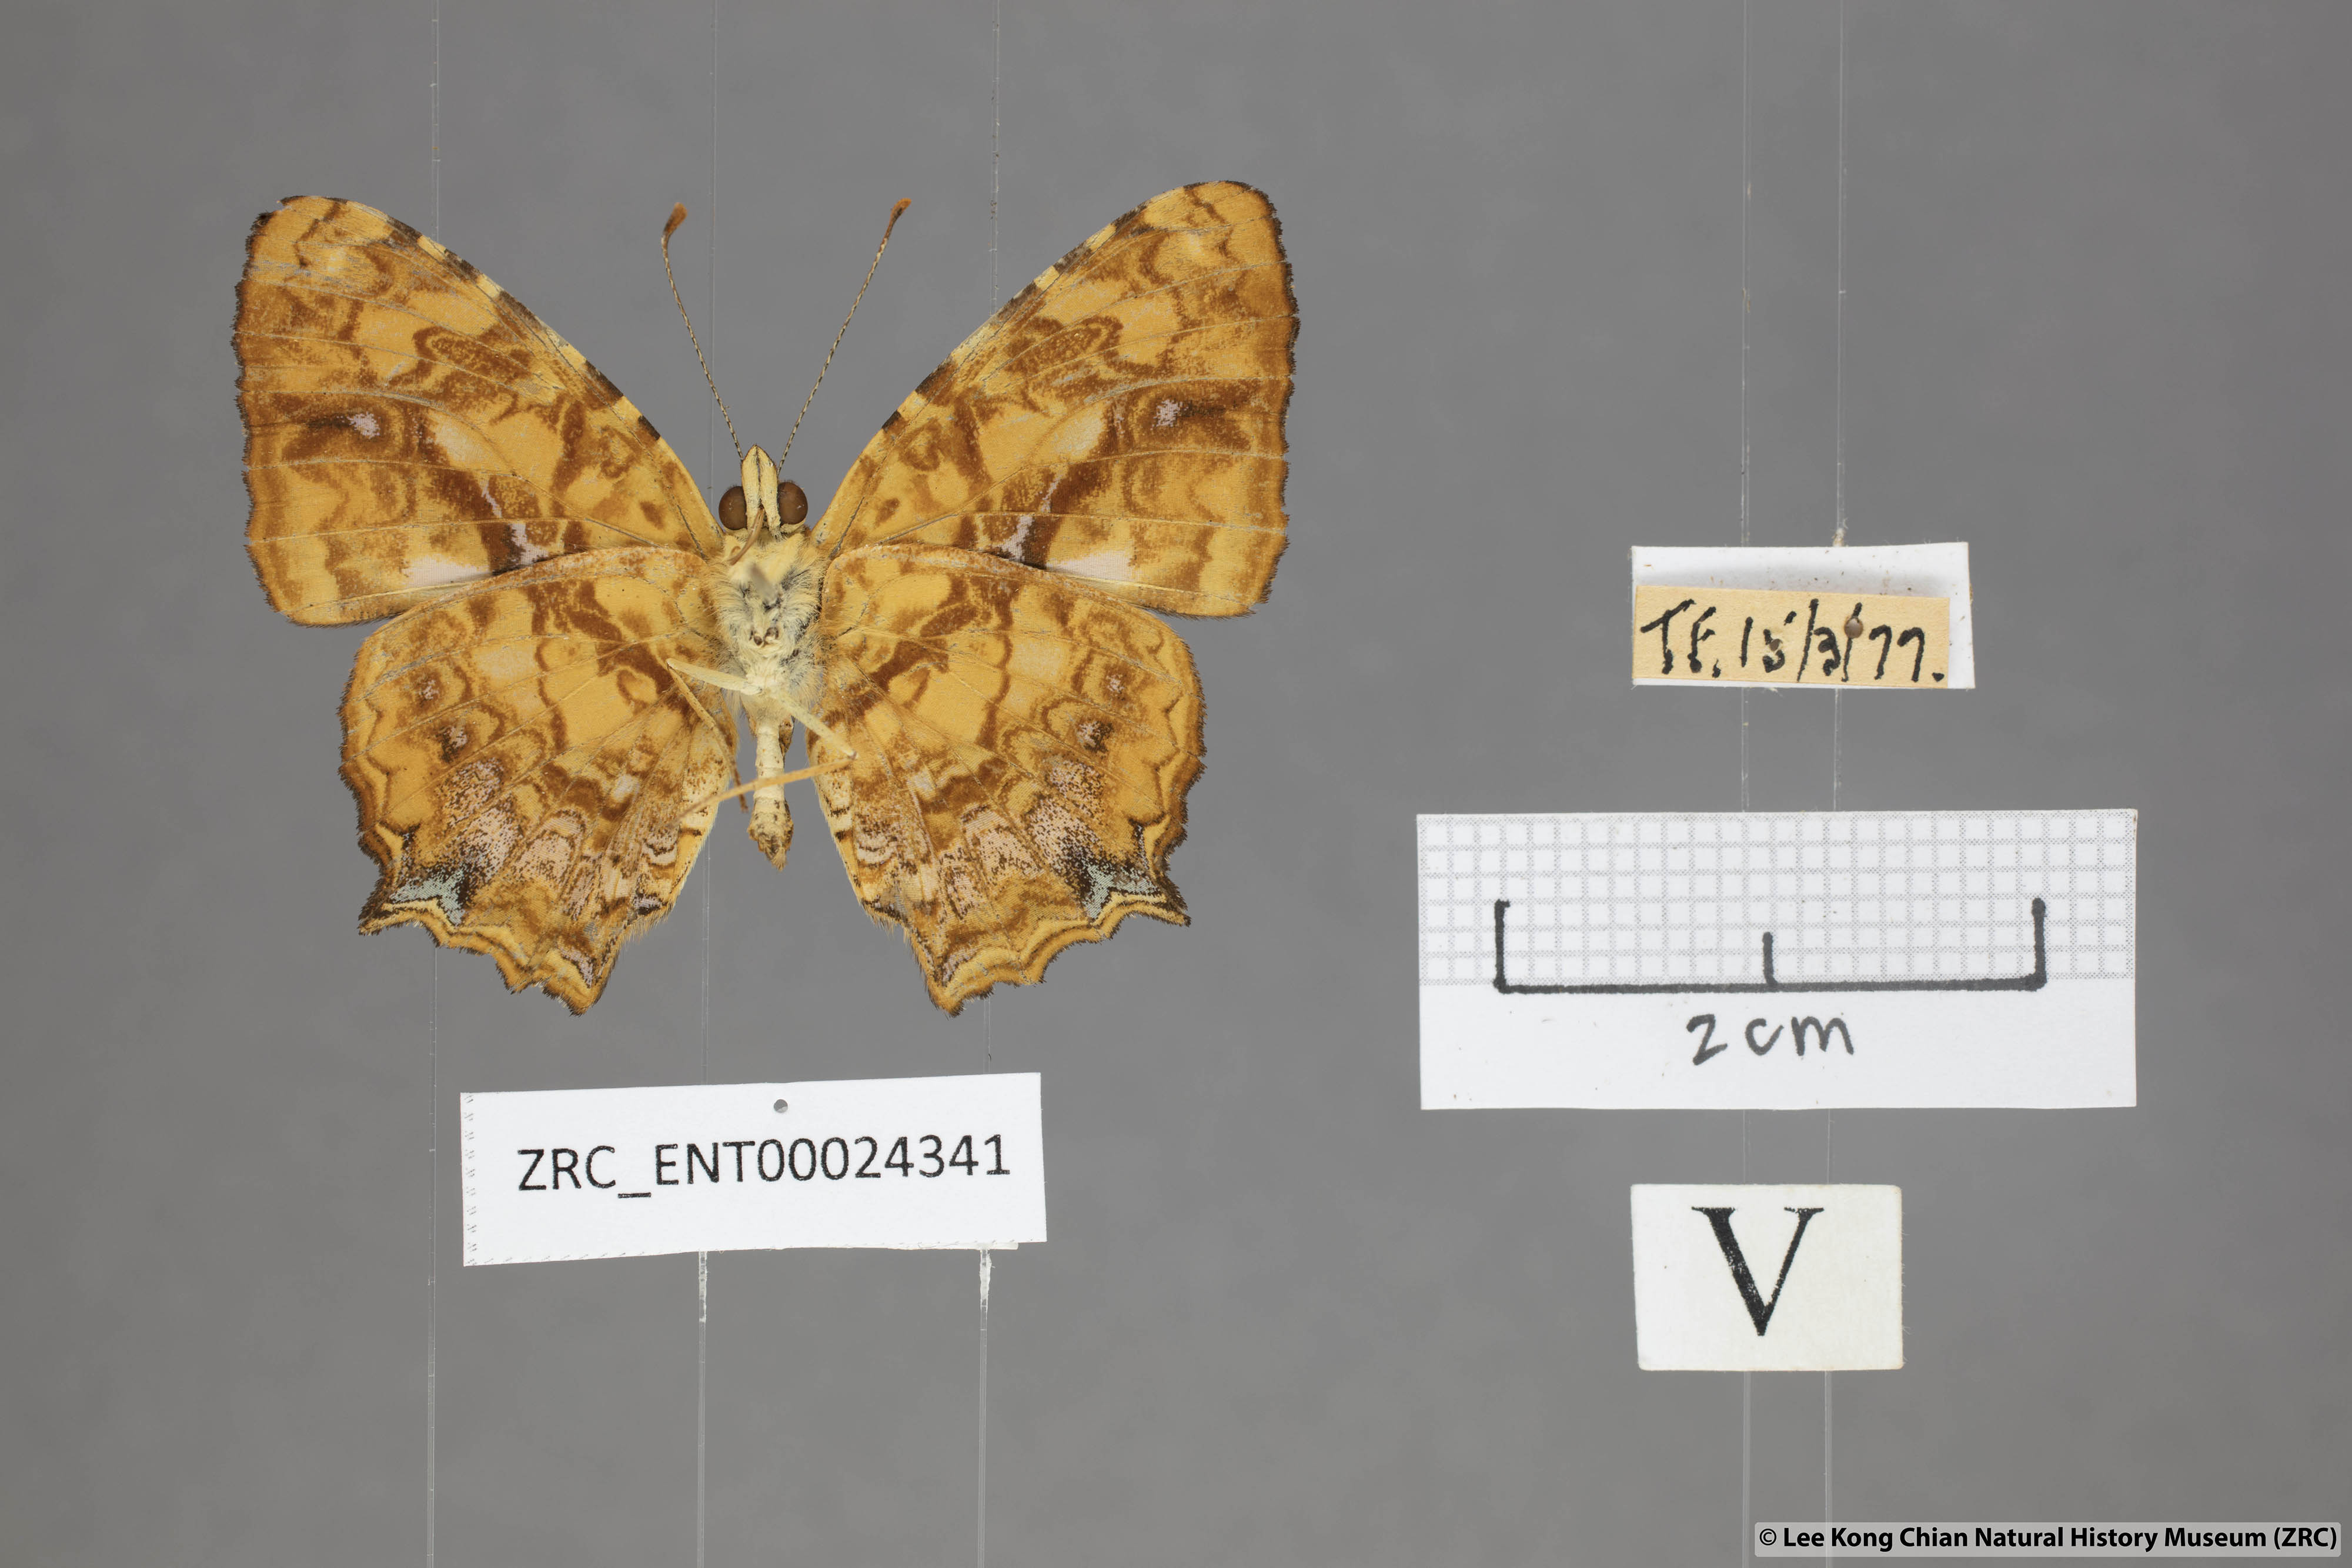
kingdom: Animalia
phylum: Arthropoda
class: Insecta
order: Lepidoptera
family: Nymphalidae
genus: Symbrenthia
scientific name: Symbrenthia hippoclus
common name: Common jester
